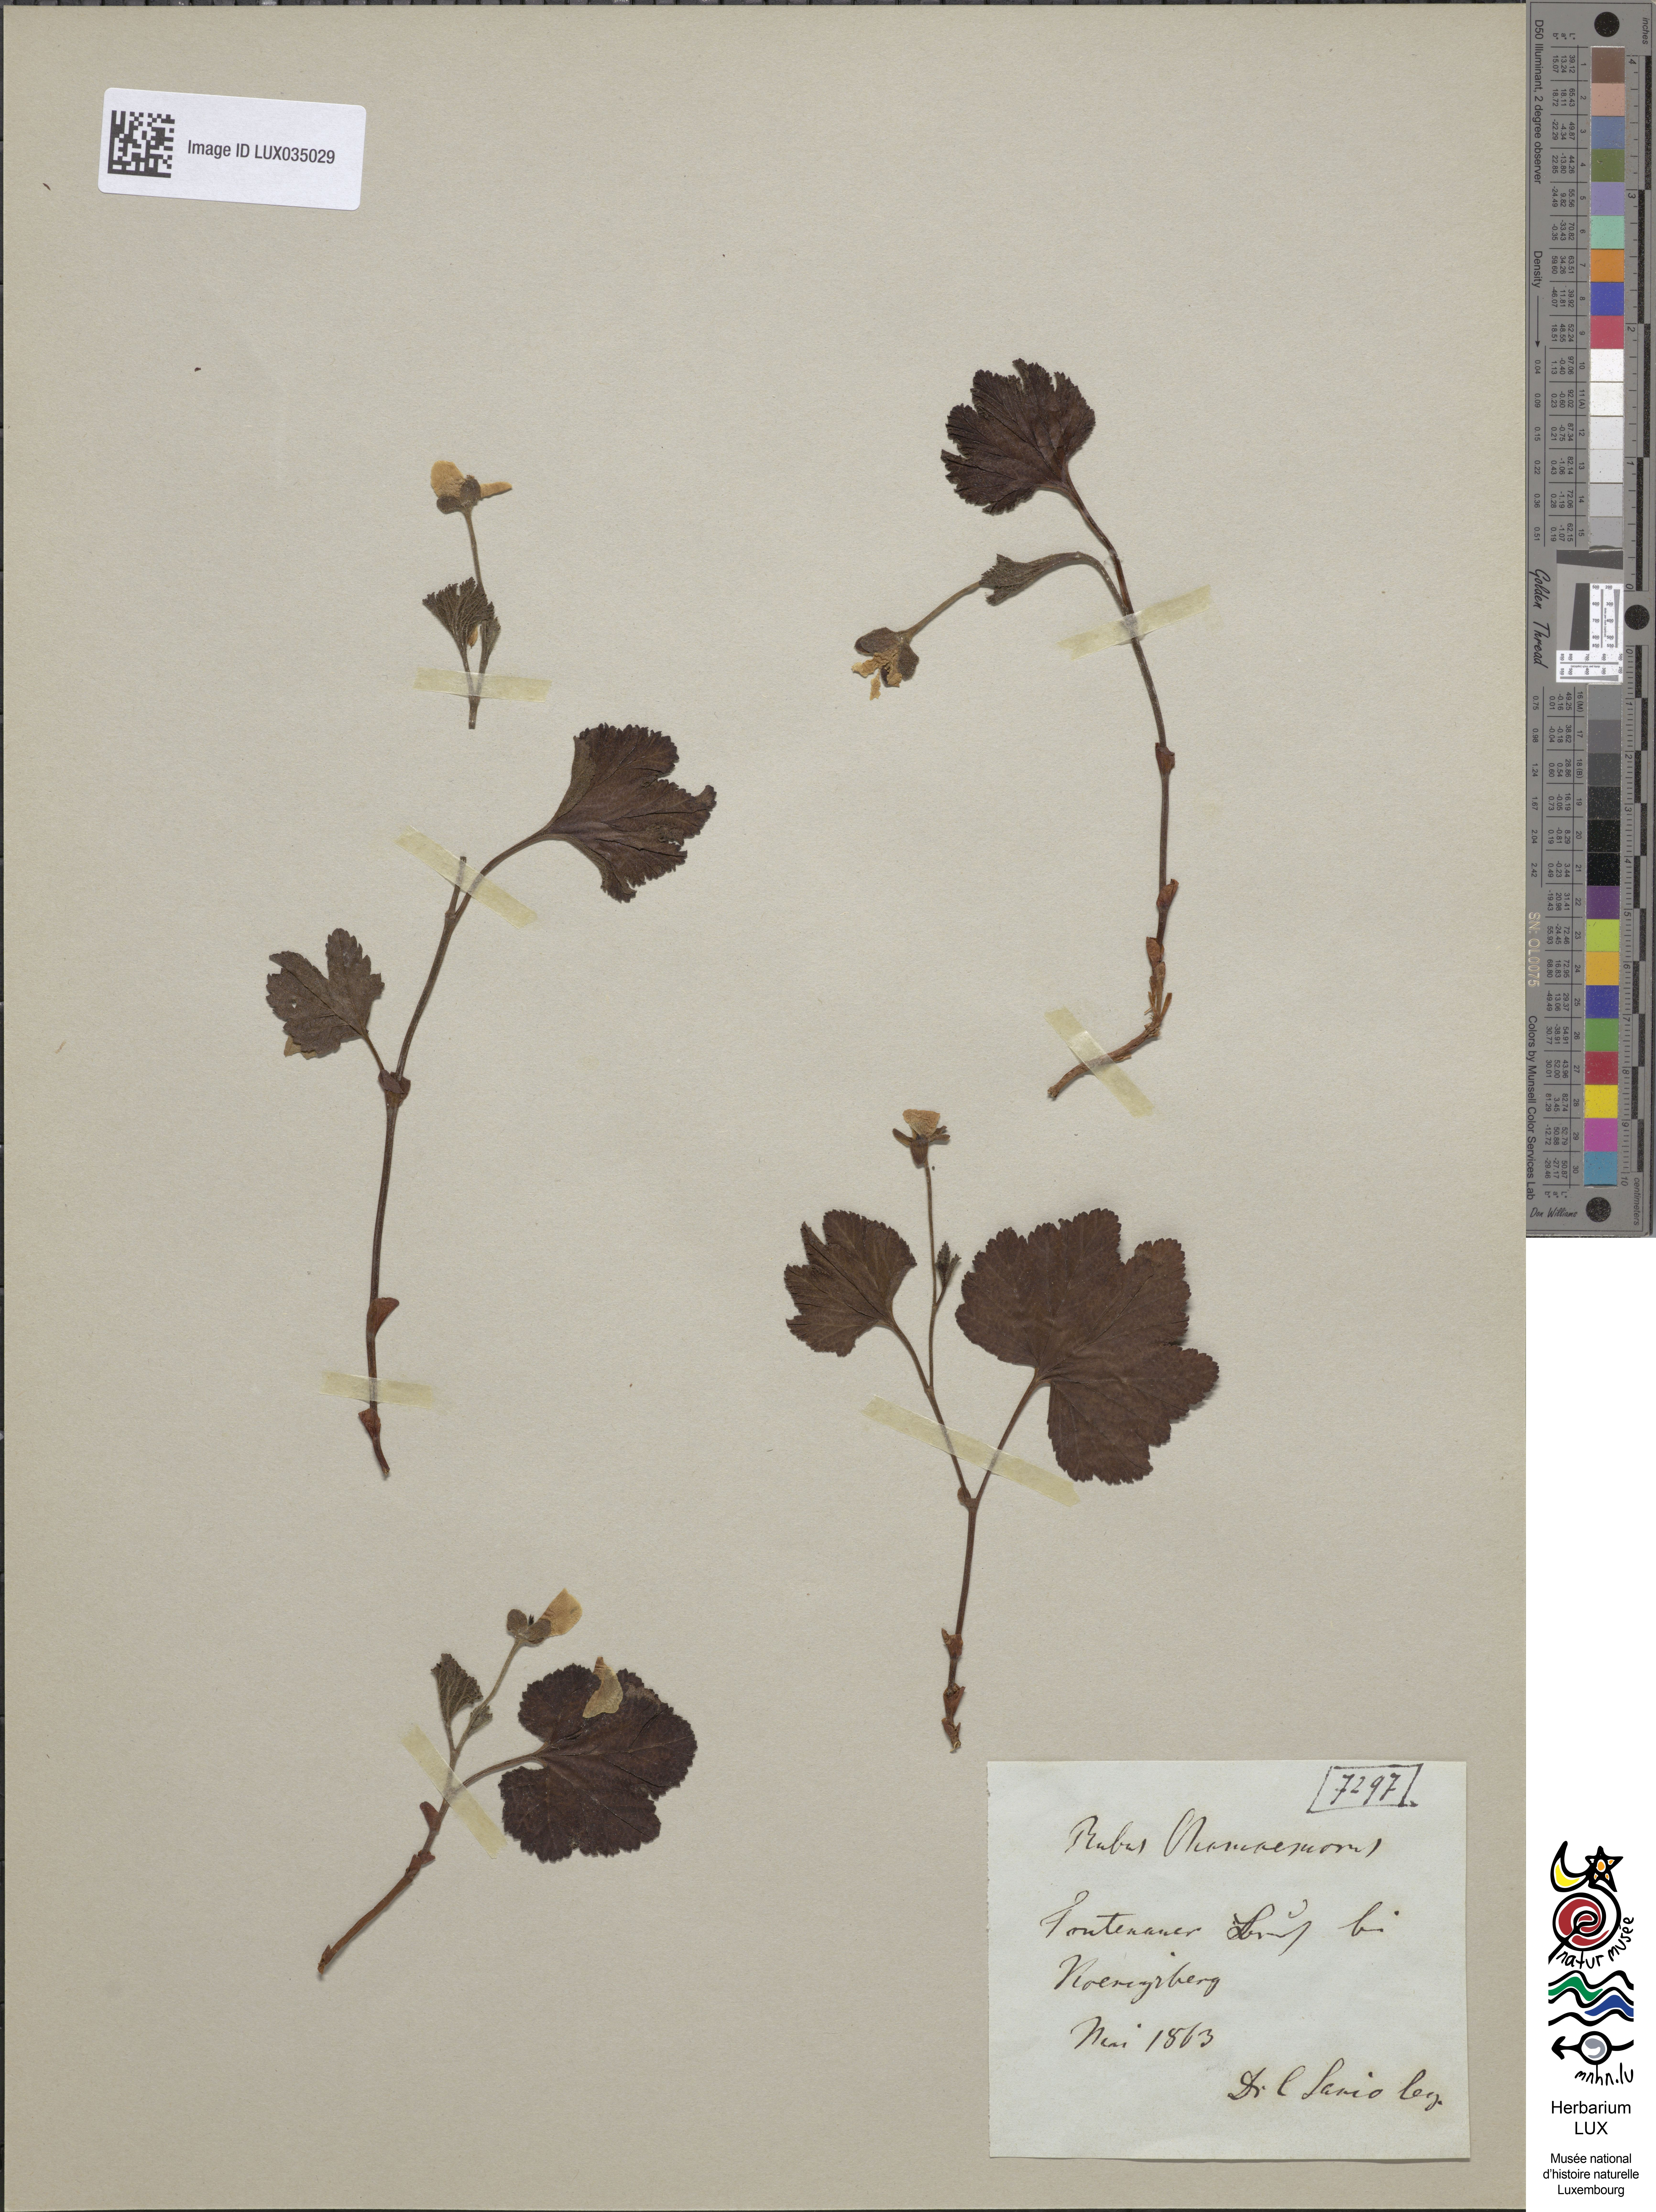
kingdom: Plantae
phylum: Tracheophyta
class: Magnoliopsida
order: Rosales
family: Rosaceae
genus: Rubus
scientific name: Rubus chamaemorus
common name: Cloudberry
